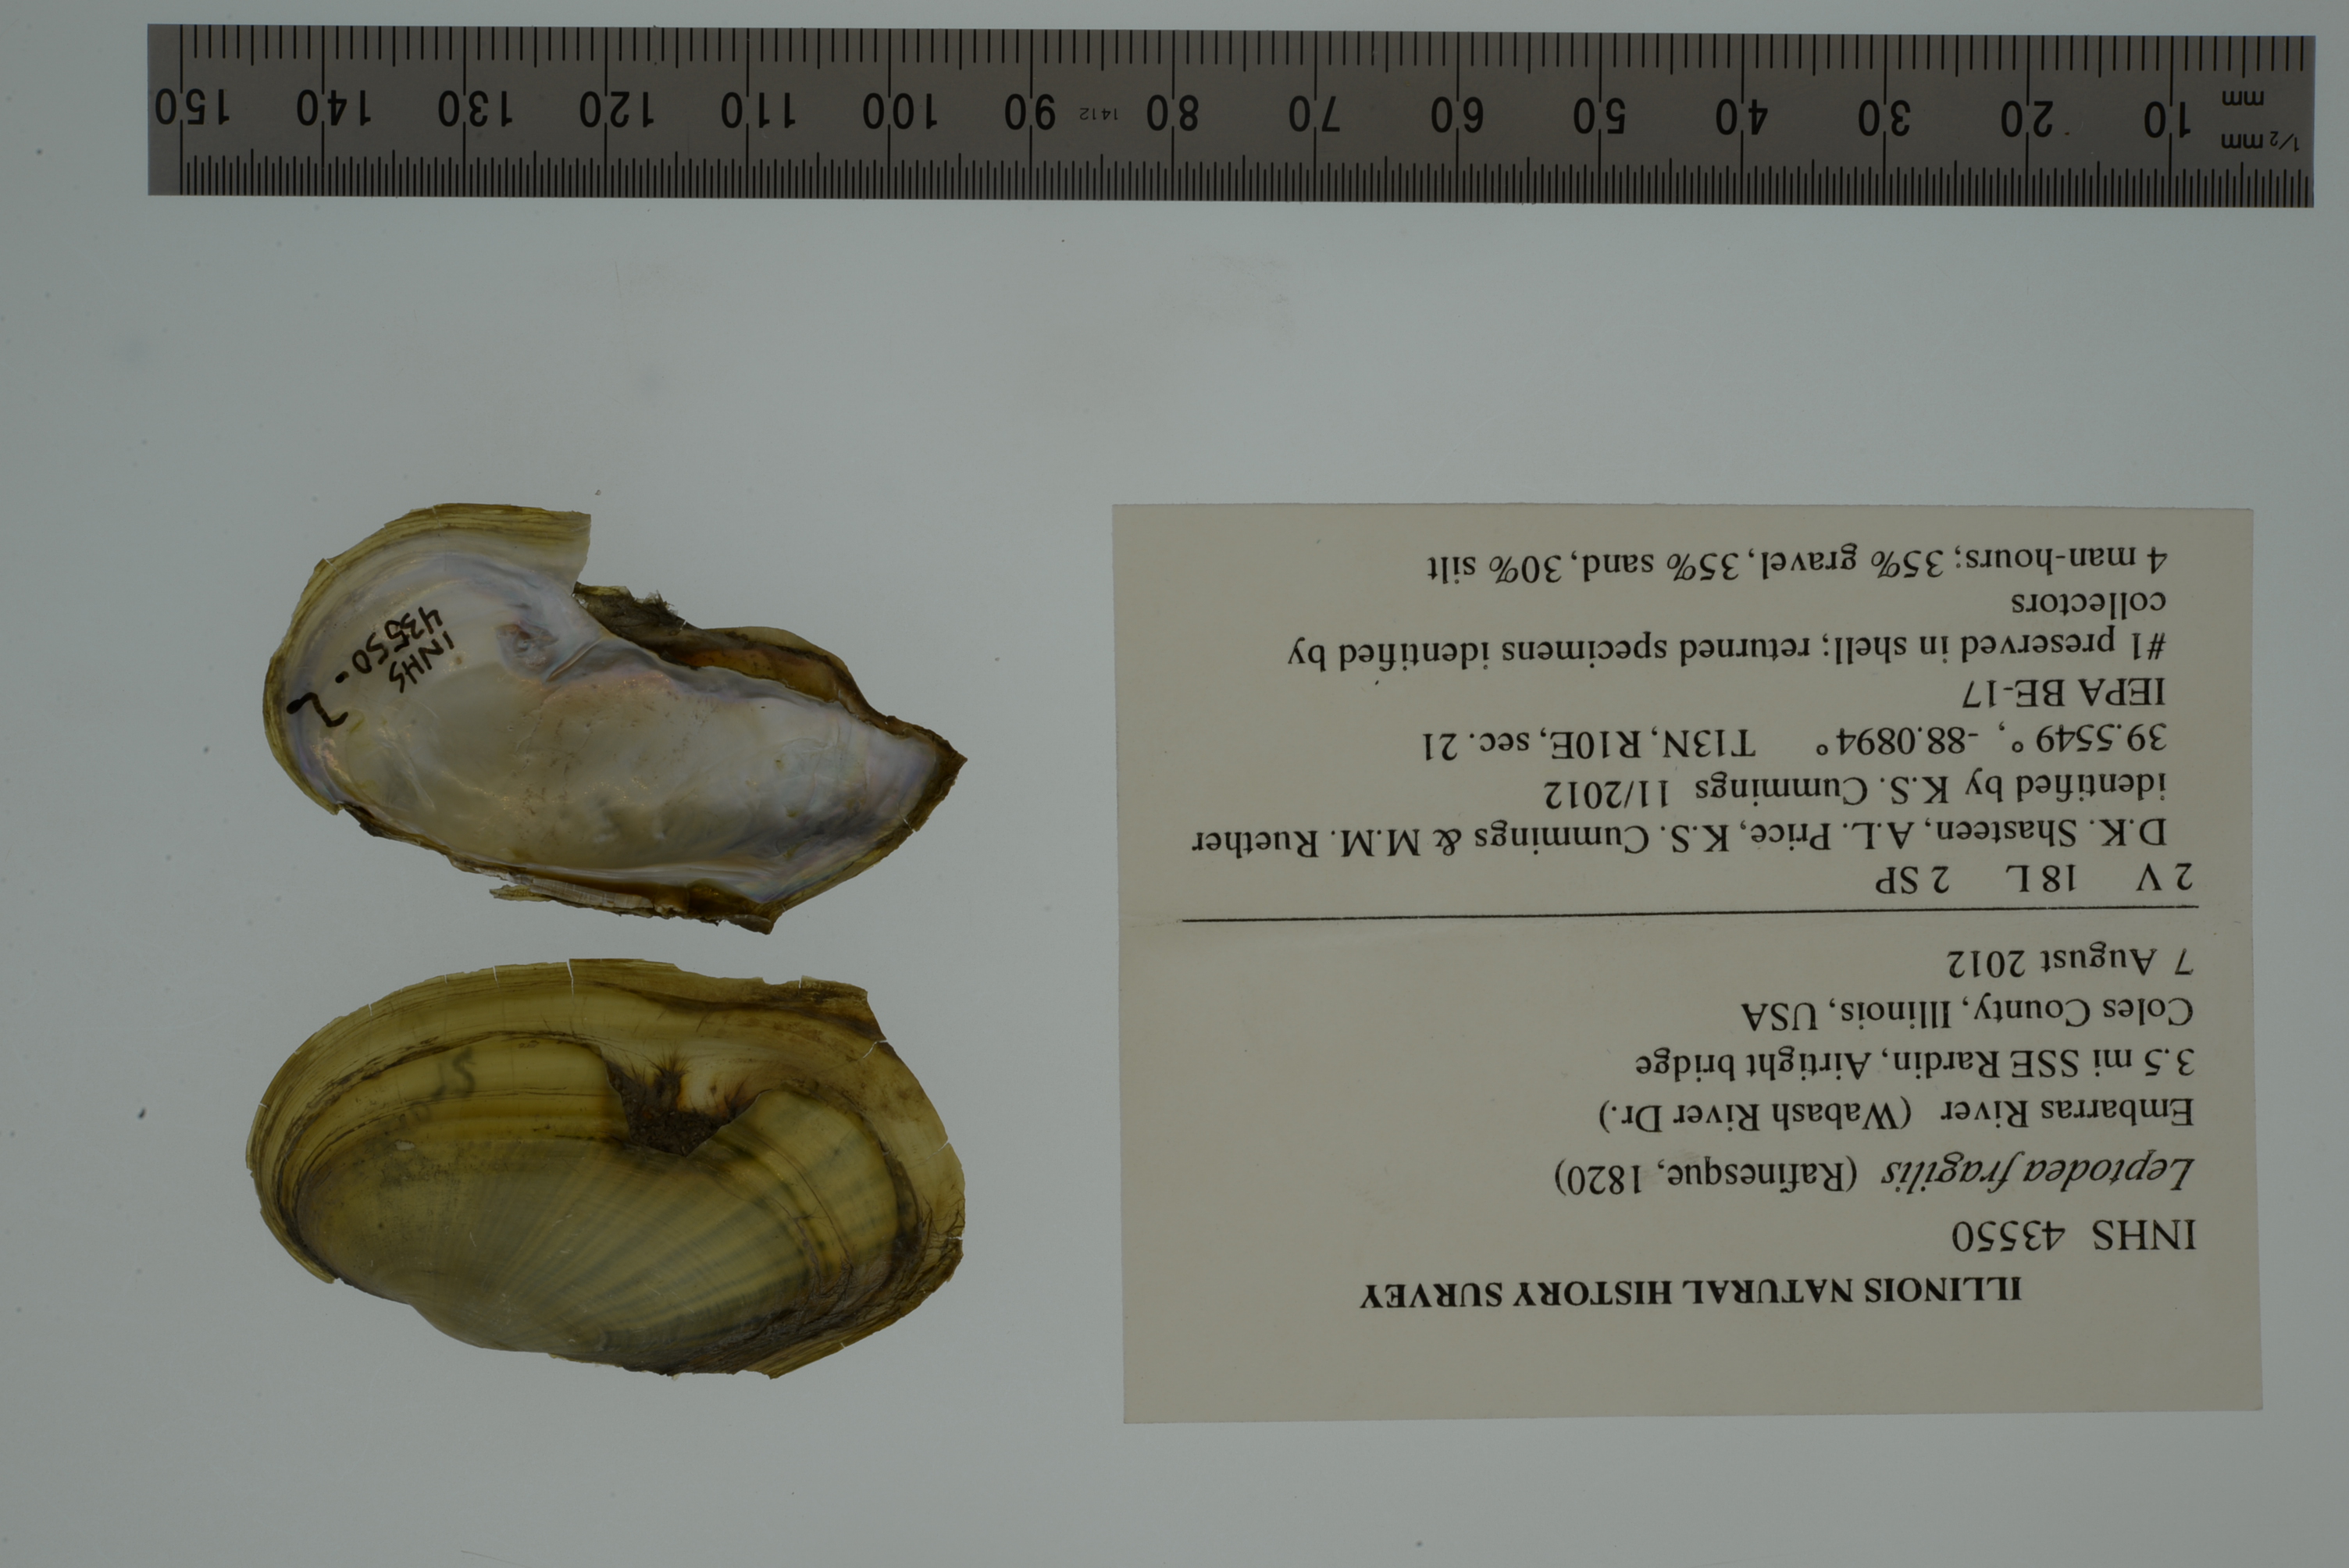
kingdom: Animalia
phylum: Mollusca
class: Bivalvia
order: Unionida
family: Unionidae
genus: Potamilus
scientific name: Potamilus fragilis
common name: Fragile papershell
